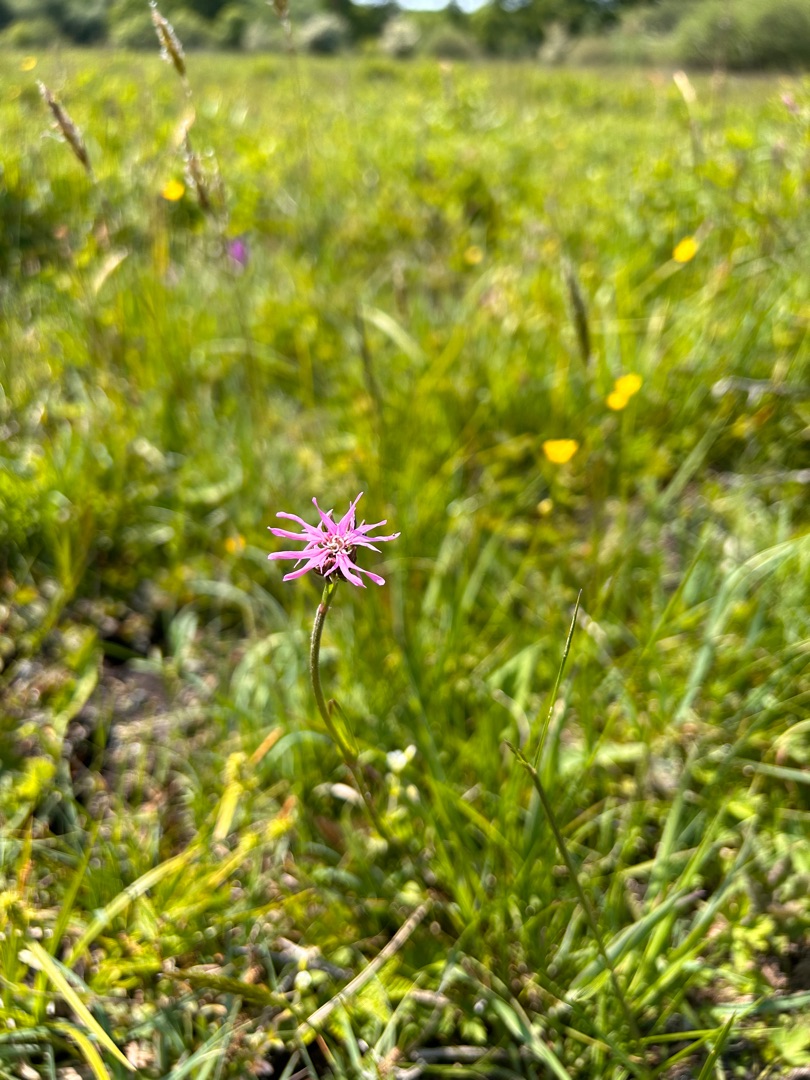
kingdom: Plantae
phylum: Tracheophyta
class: Magnoliopsida
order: Caryophyllales
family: Caryophyllaceae
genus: Silene
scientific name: Silene flos-cuculi
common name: Trævlekrone
